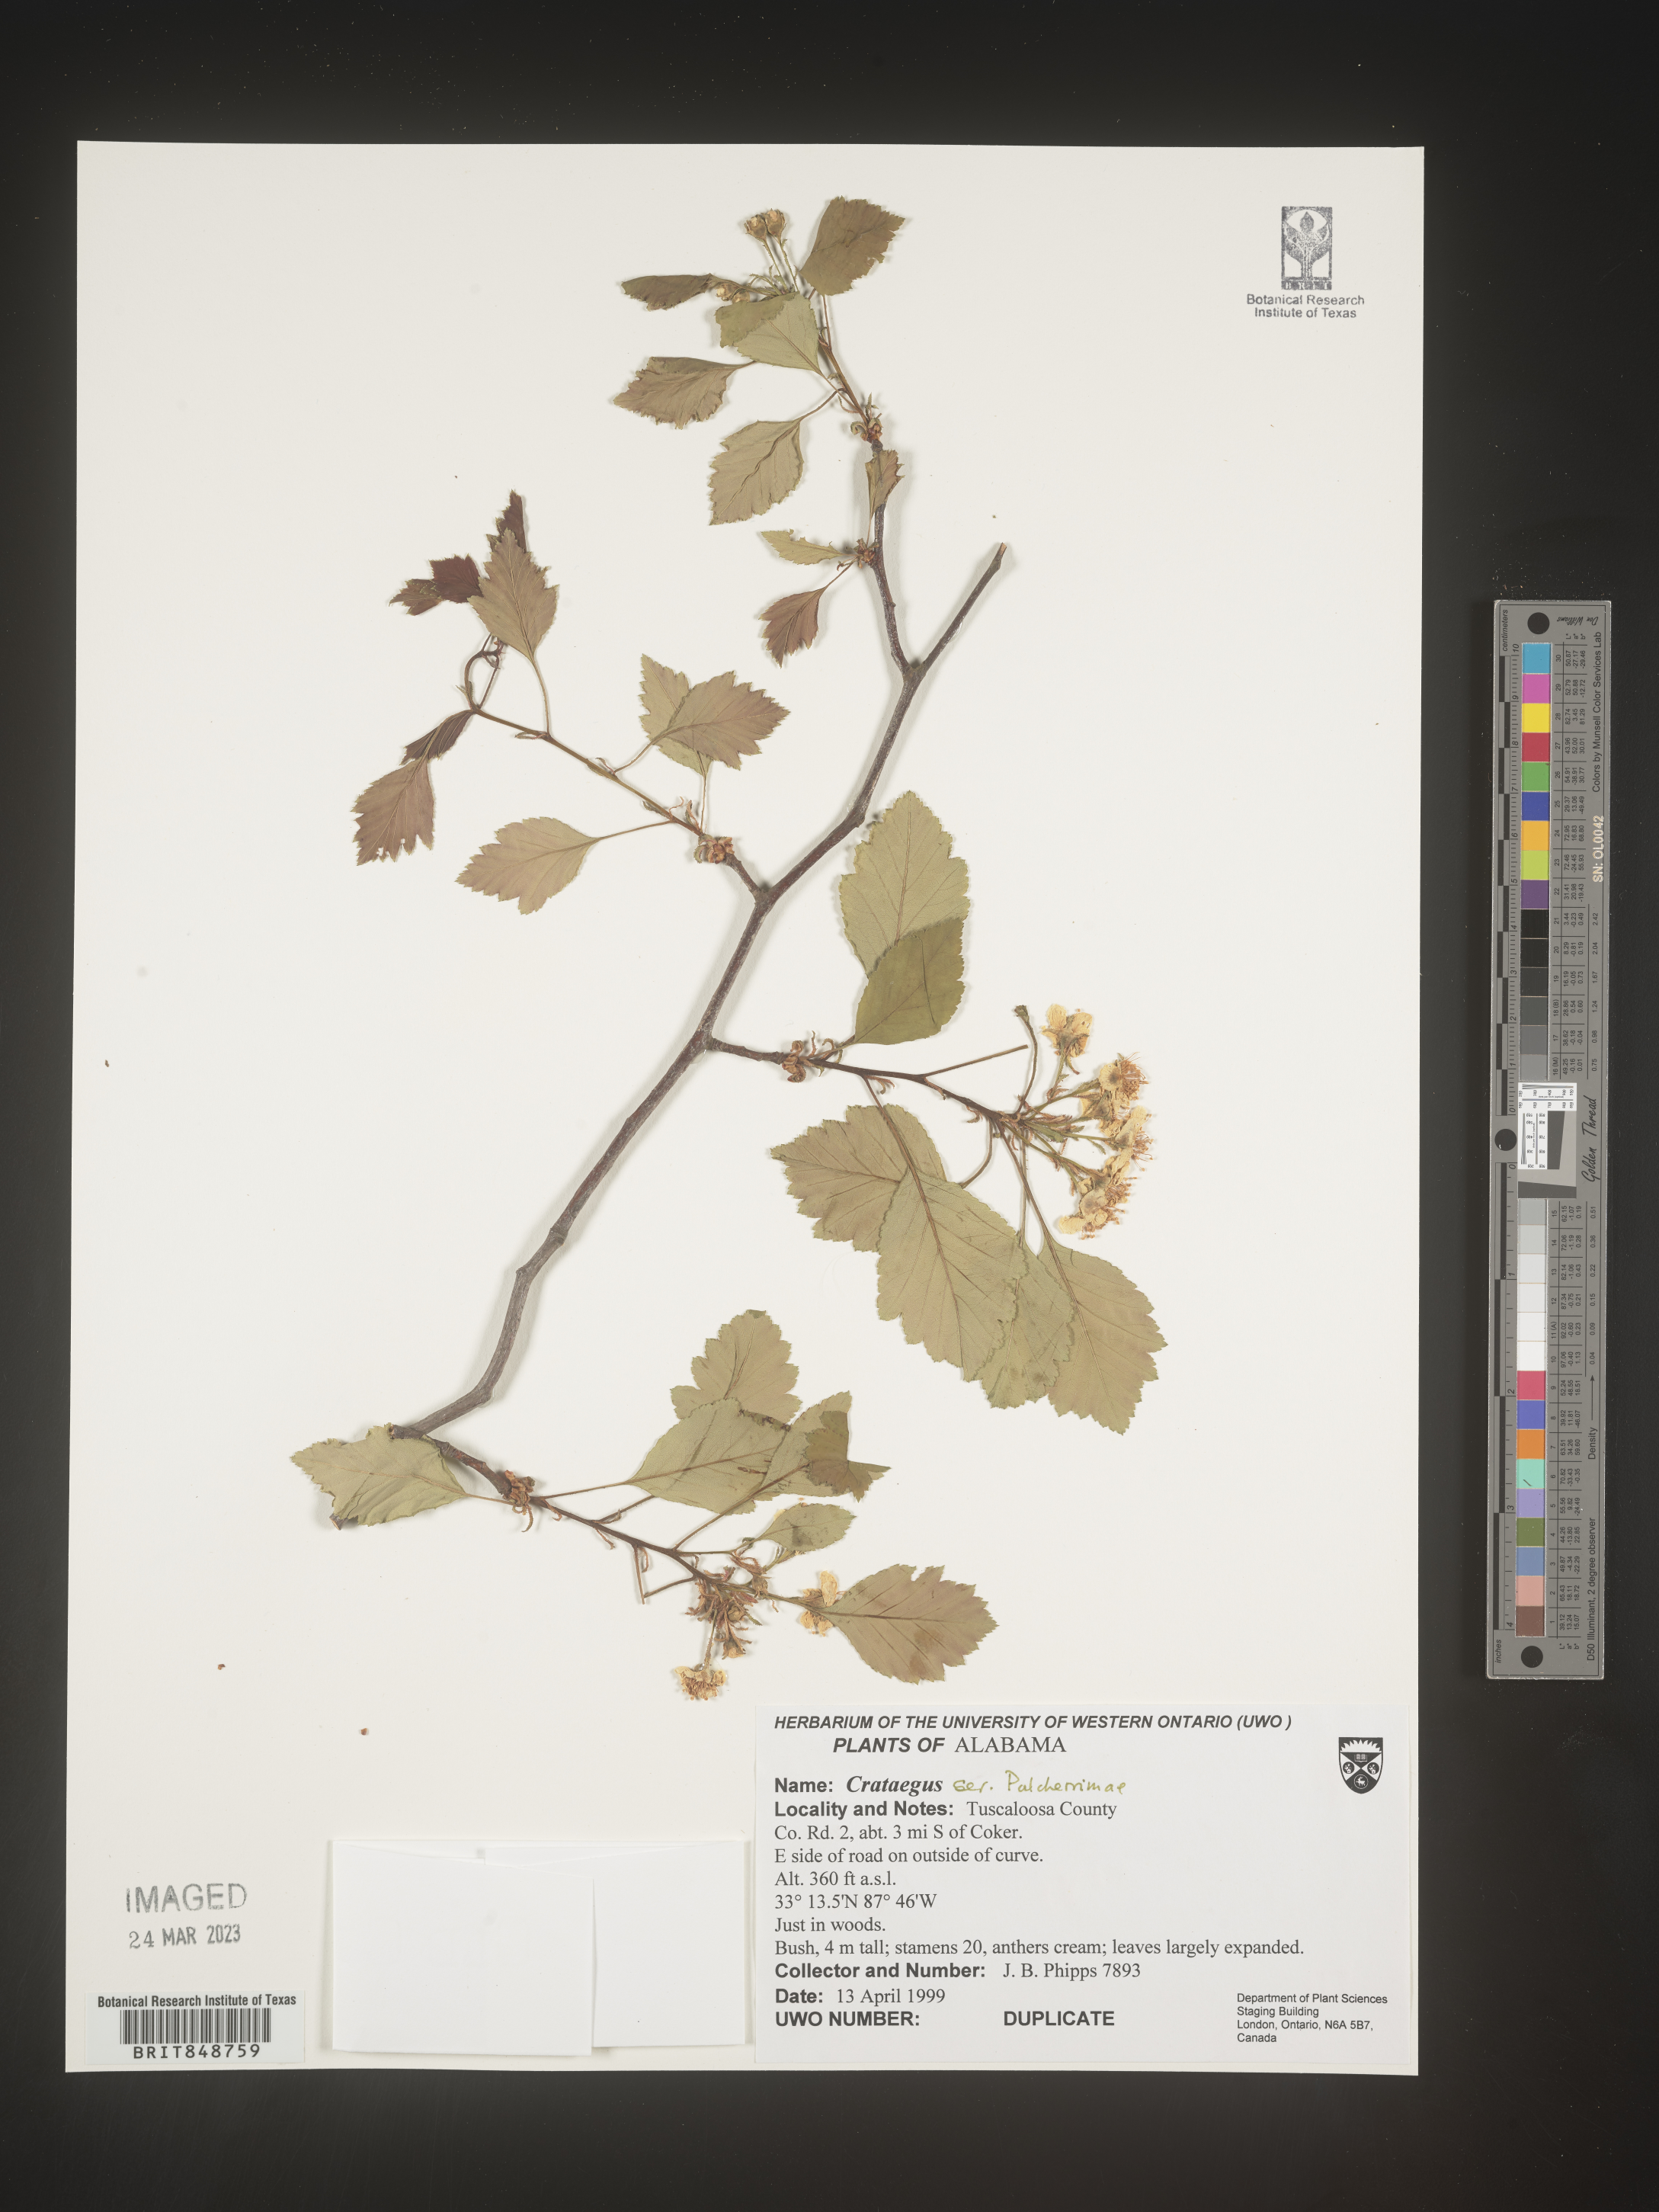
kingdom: Plantae
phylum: Tracheophyta
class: Magnoliopsida
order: Rosales
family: Rosaceae
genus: Crataegus
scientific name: Crataegus
